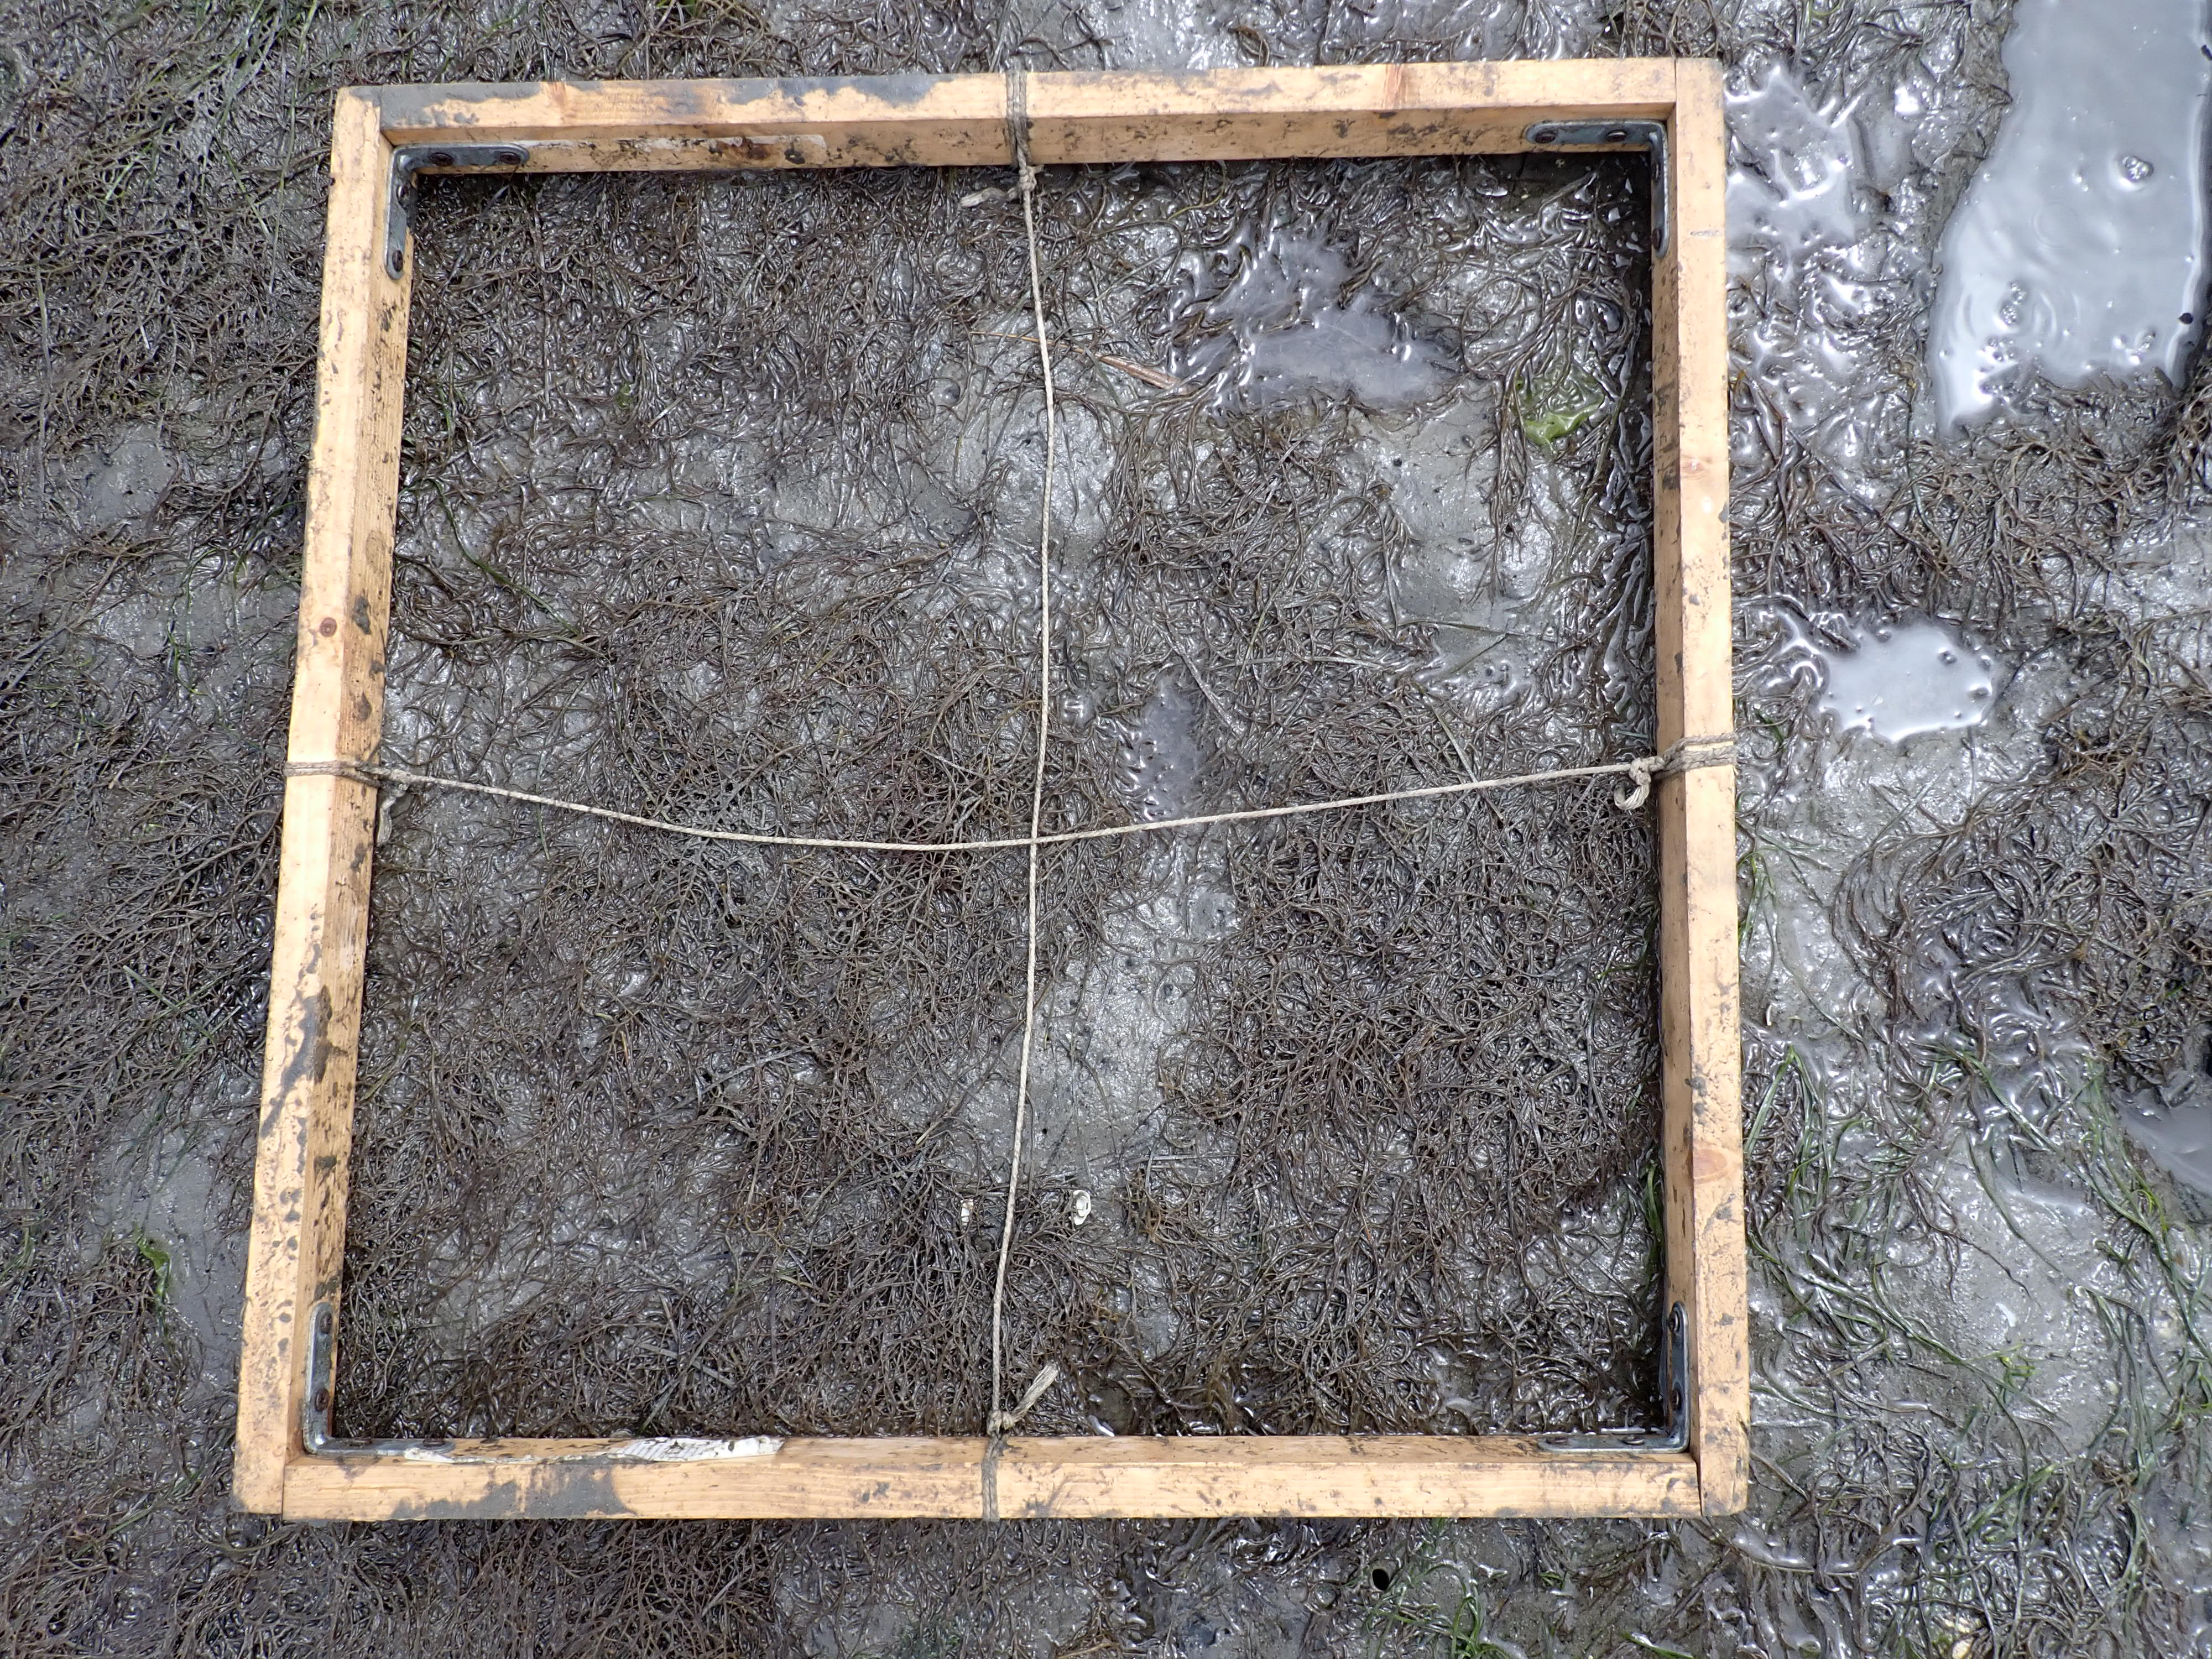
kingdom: Plantae
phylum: Rhodophyta
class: Florideophyceae
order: Gracilariales
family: Gracilariaceae
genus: Gracilaria
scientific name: Gracilaria vermiculophylla
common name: Algae
